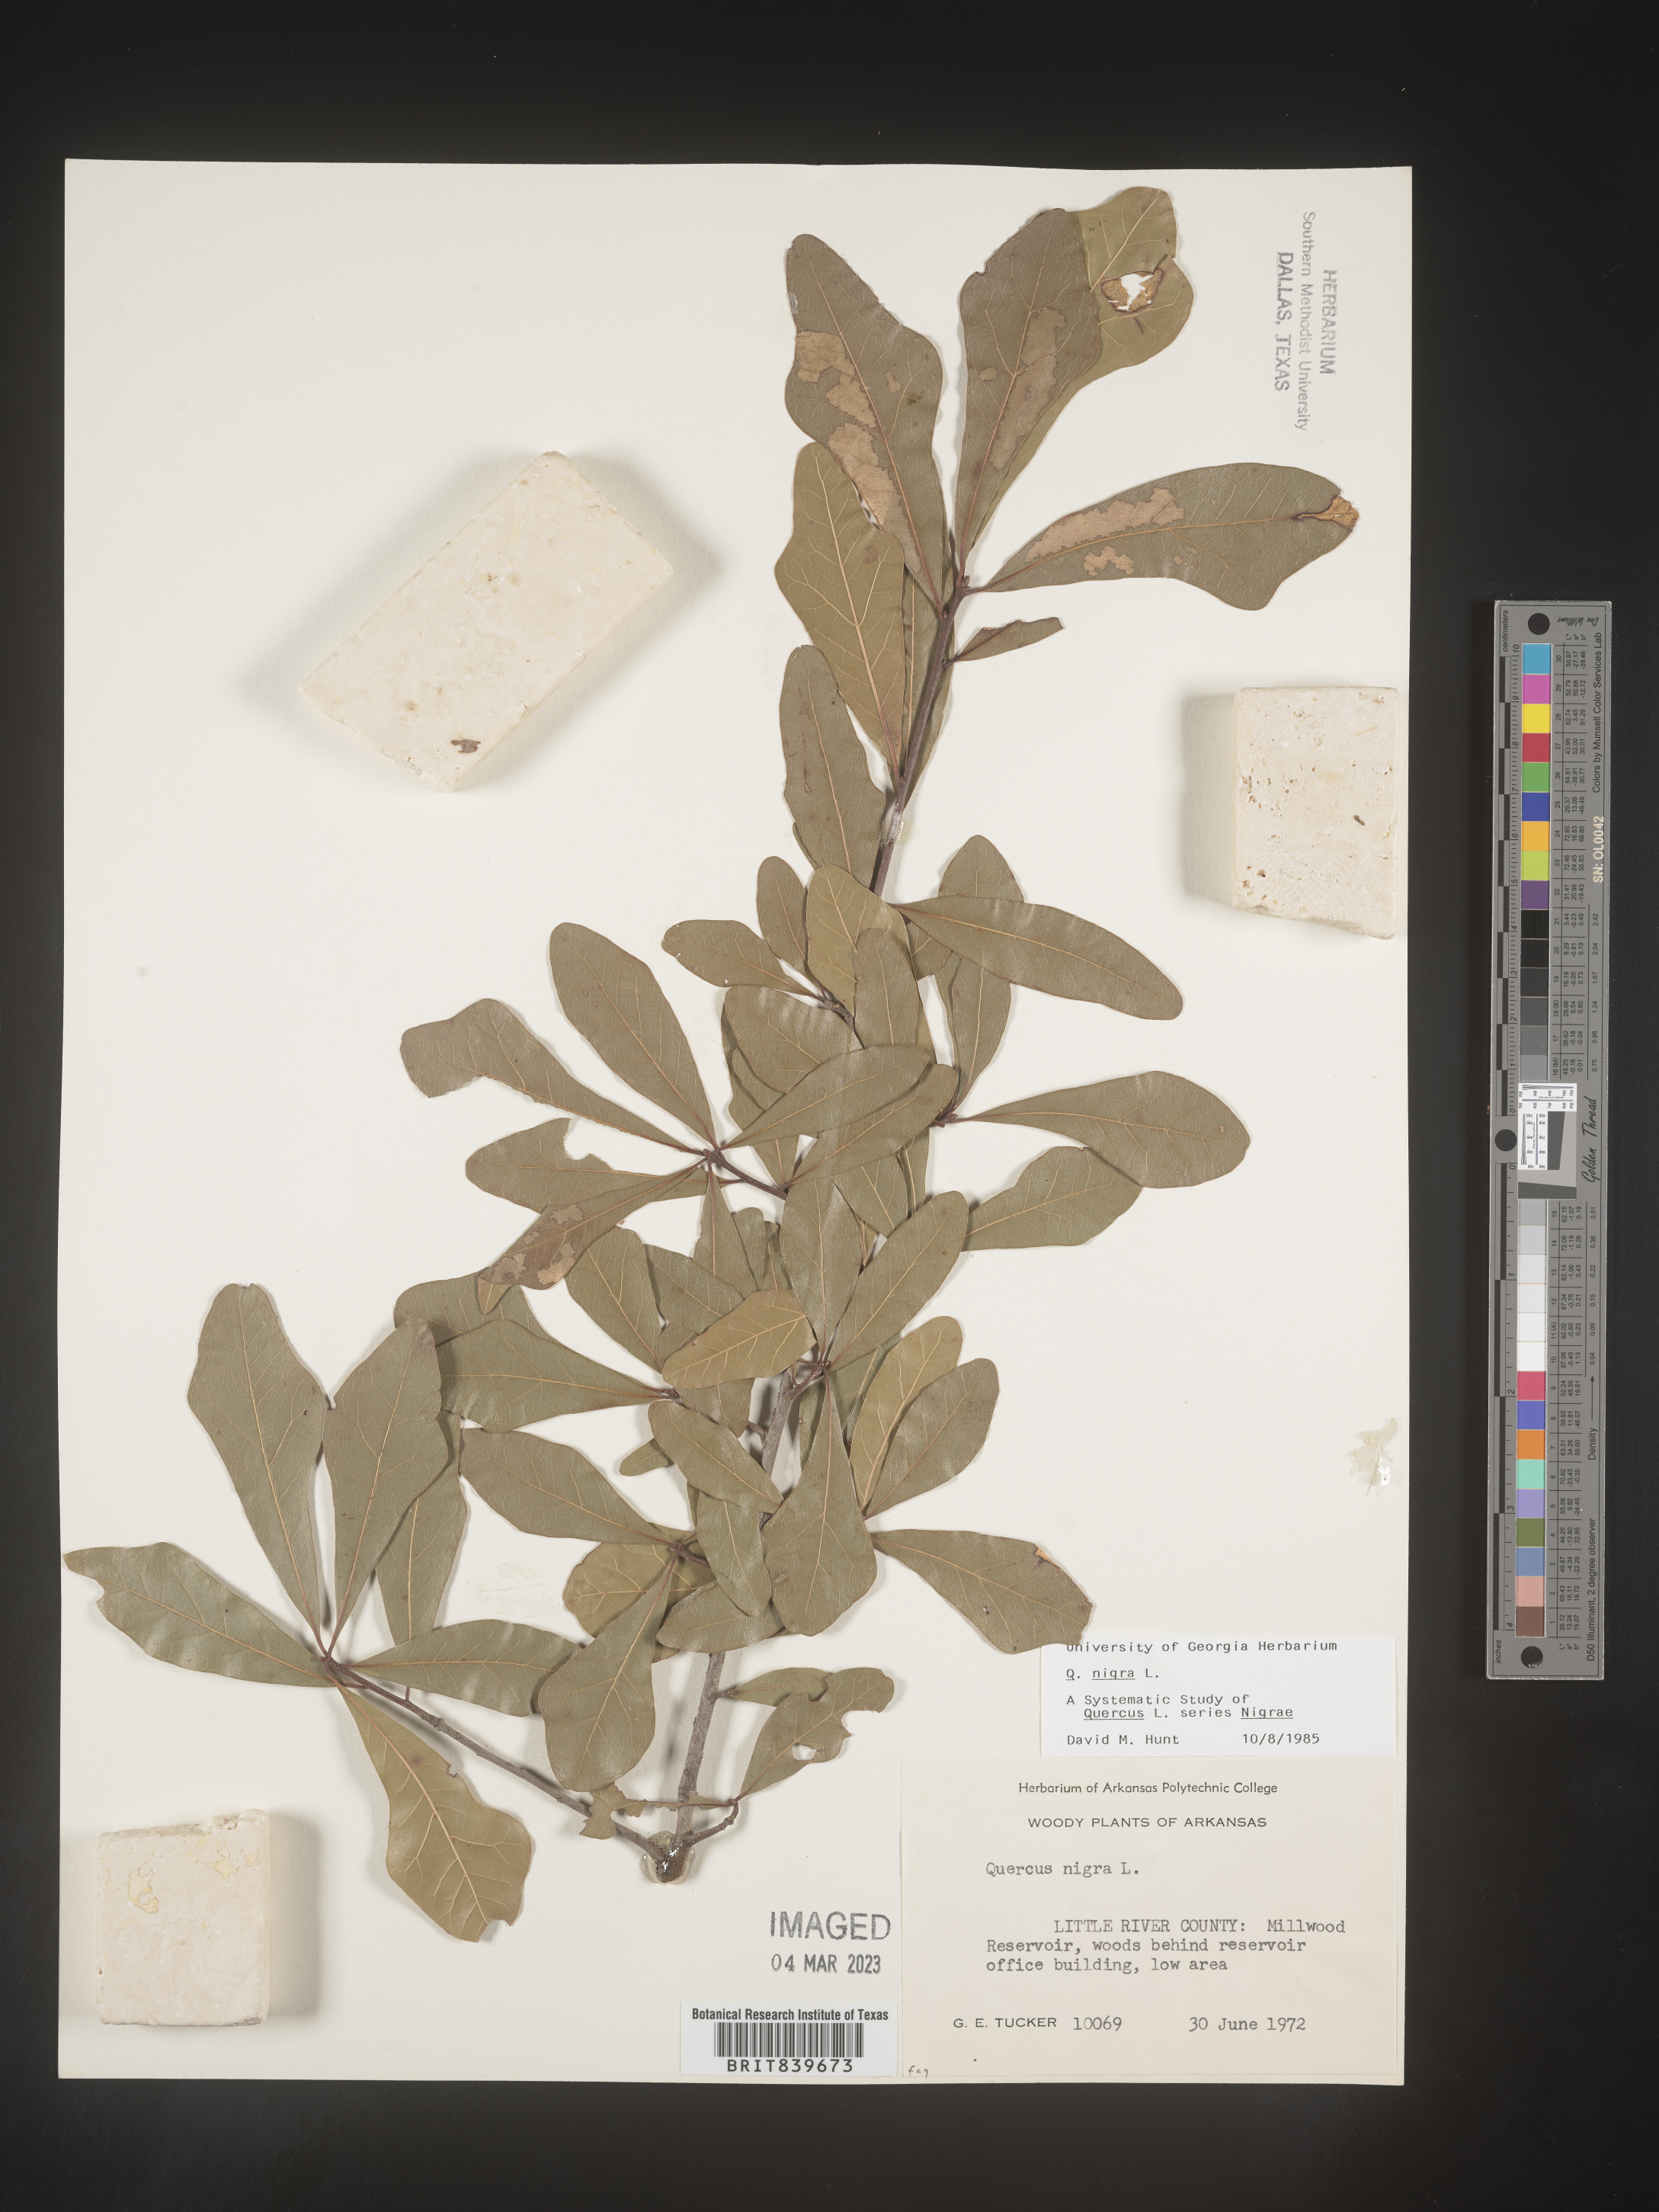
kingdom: Plantae
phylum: Tracheophyta
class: Magnoliopsida
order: Fagales
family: Fagaceae
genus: Quercus
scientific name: Quercus nigra
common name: Water oak
